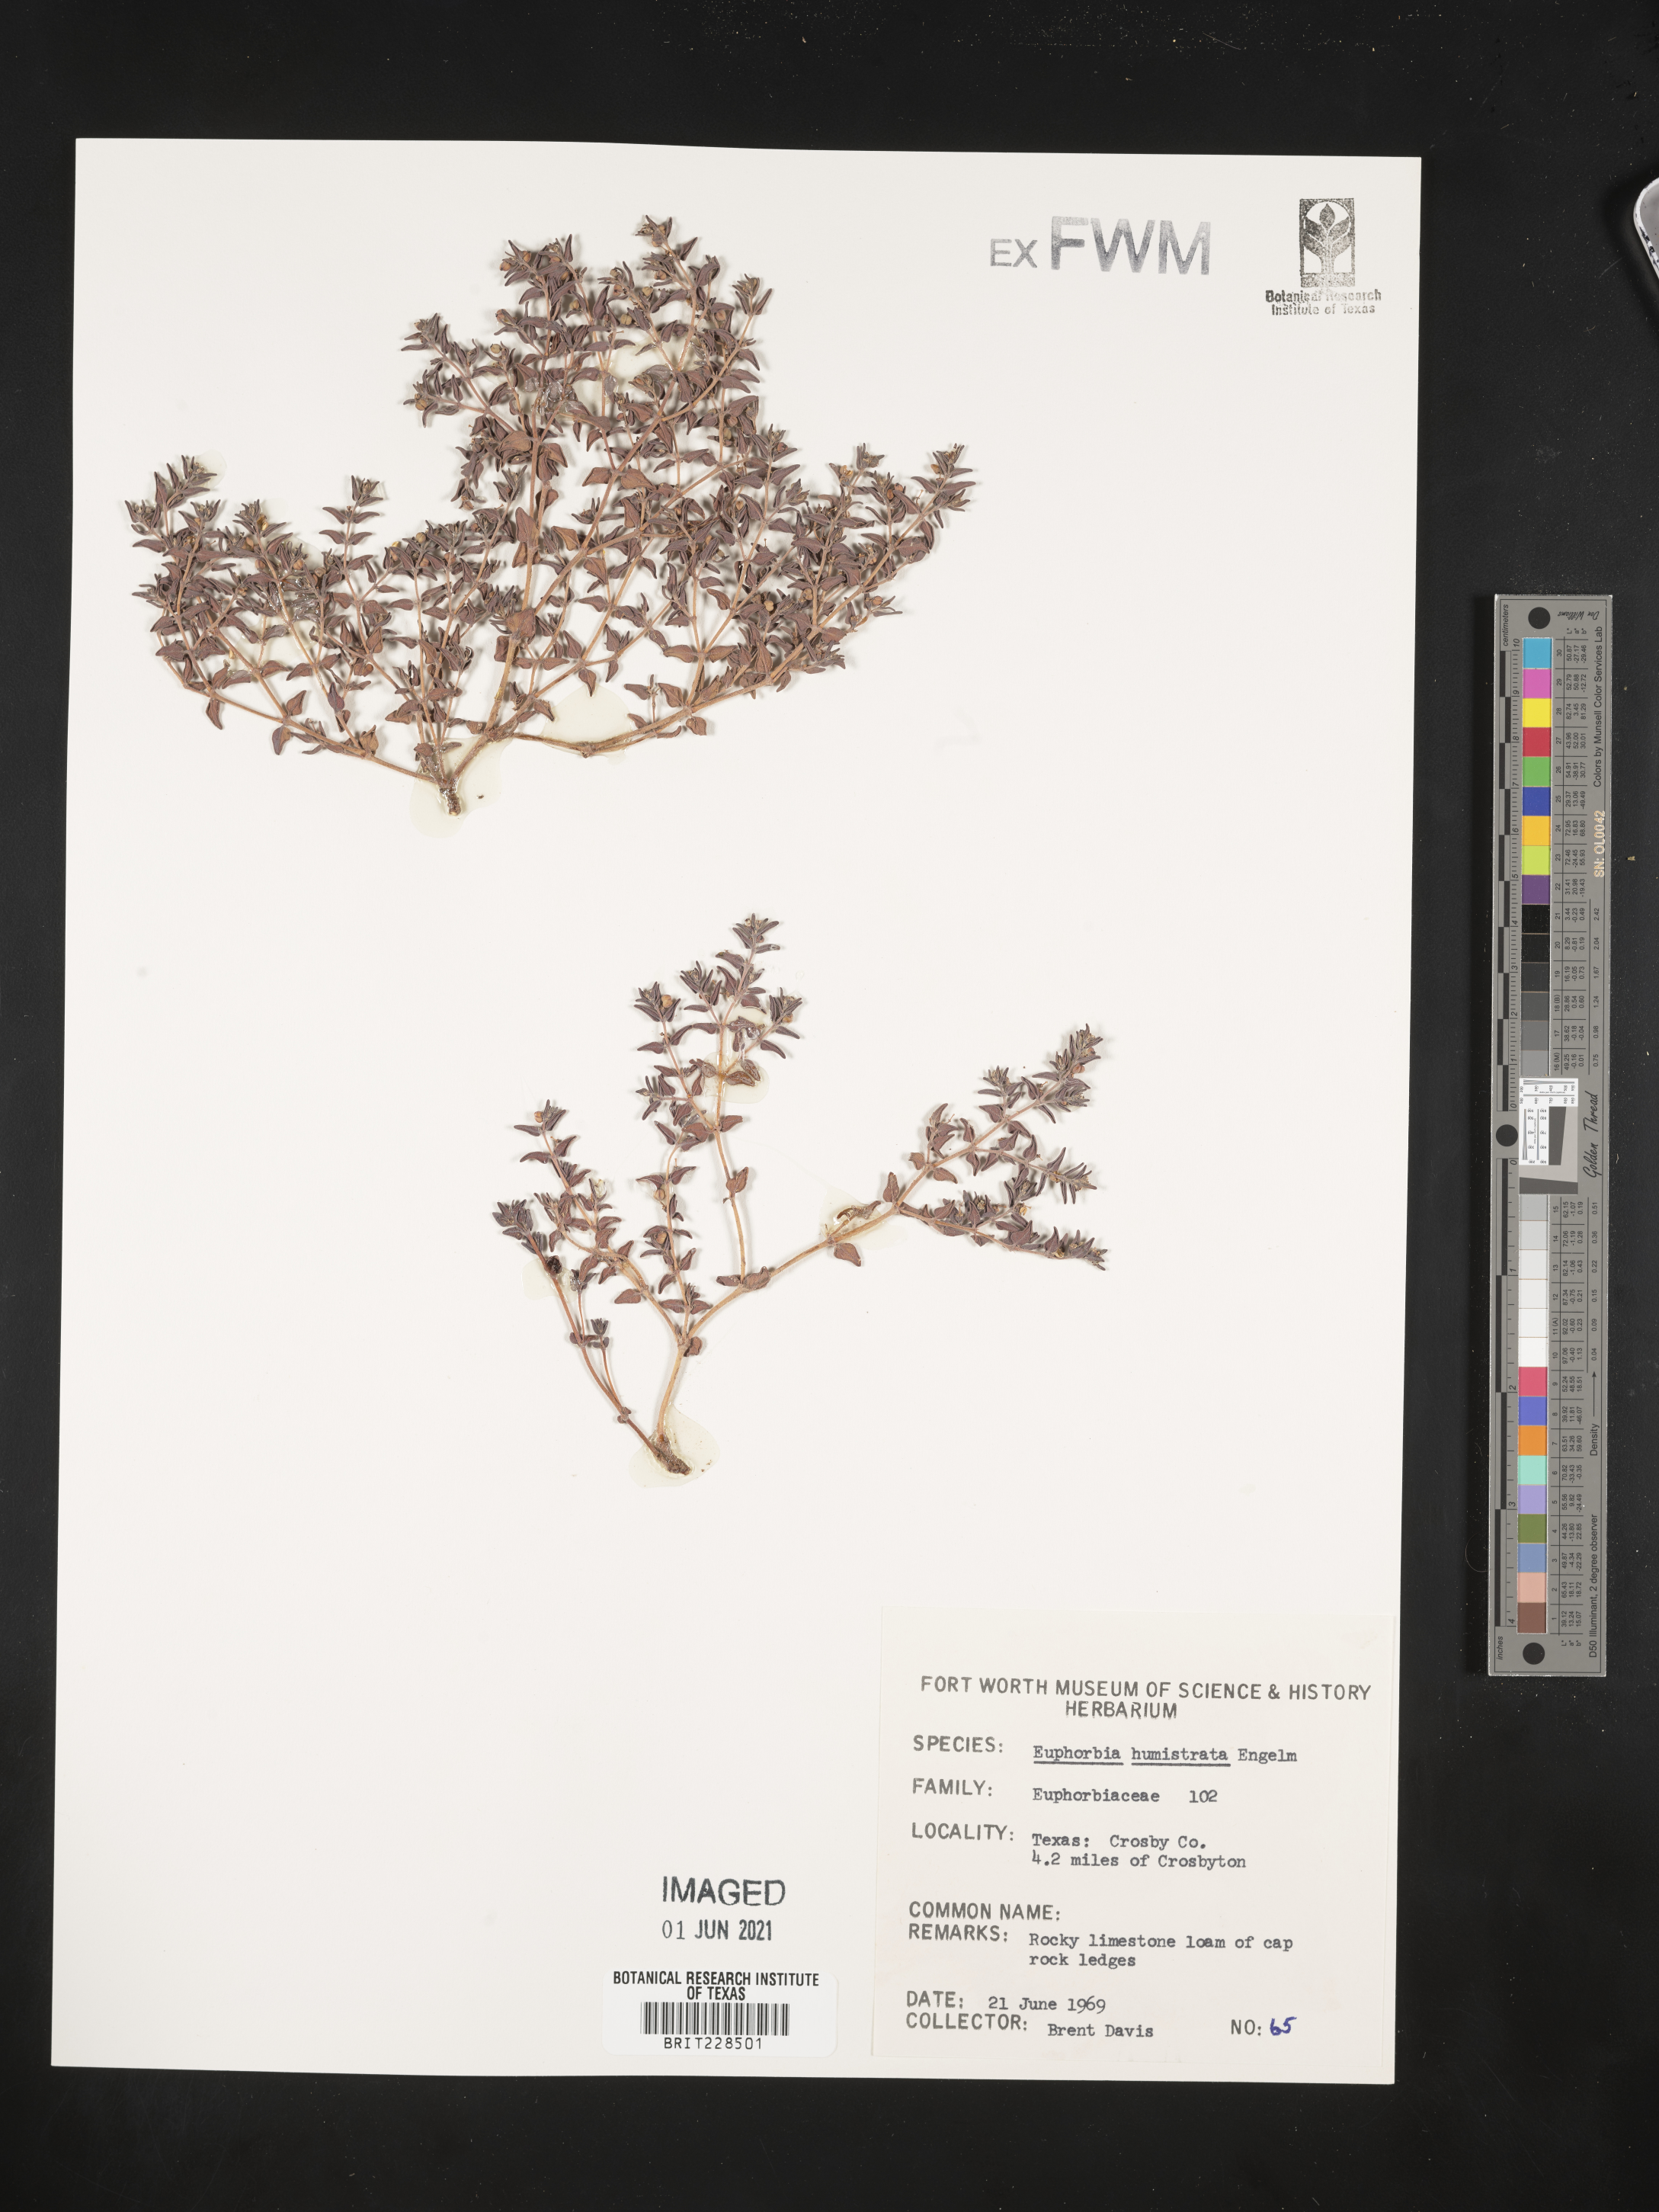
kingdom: Plantae
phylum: Tracheophyta
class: Magnoliopsida
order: Malpighiales
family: Euphorbiaceae
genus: Euphorbia
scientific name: Euphorbia humistrata
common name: Hairy spreading spurge
